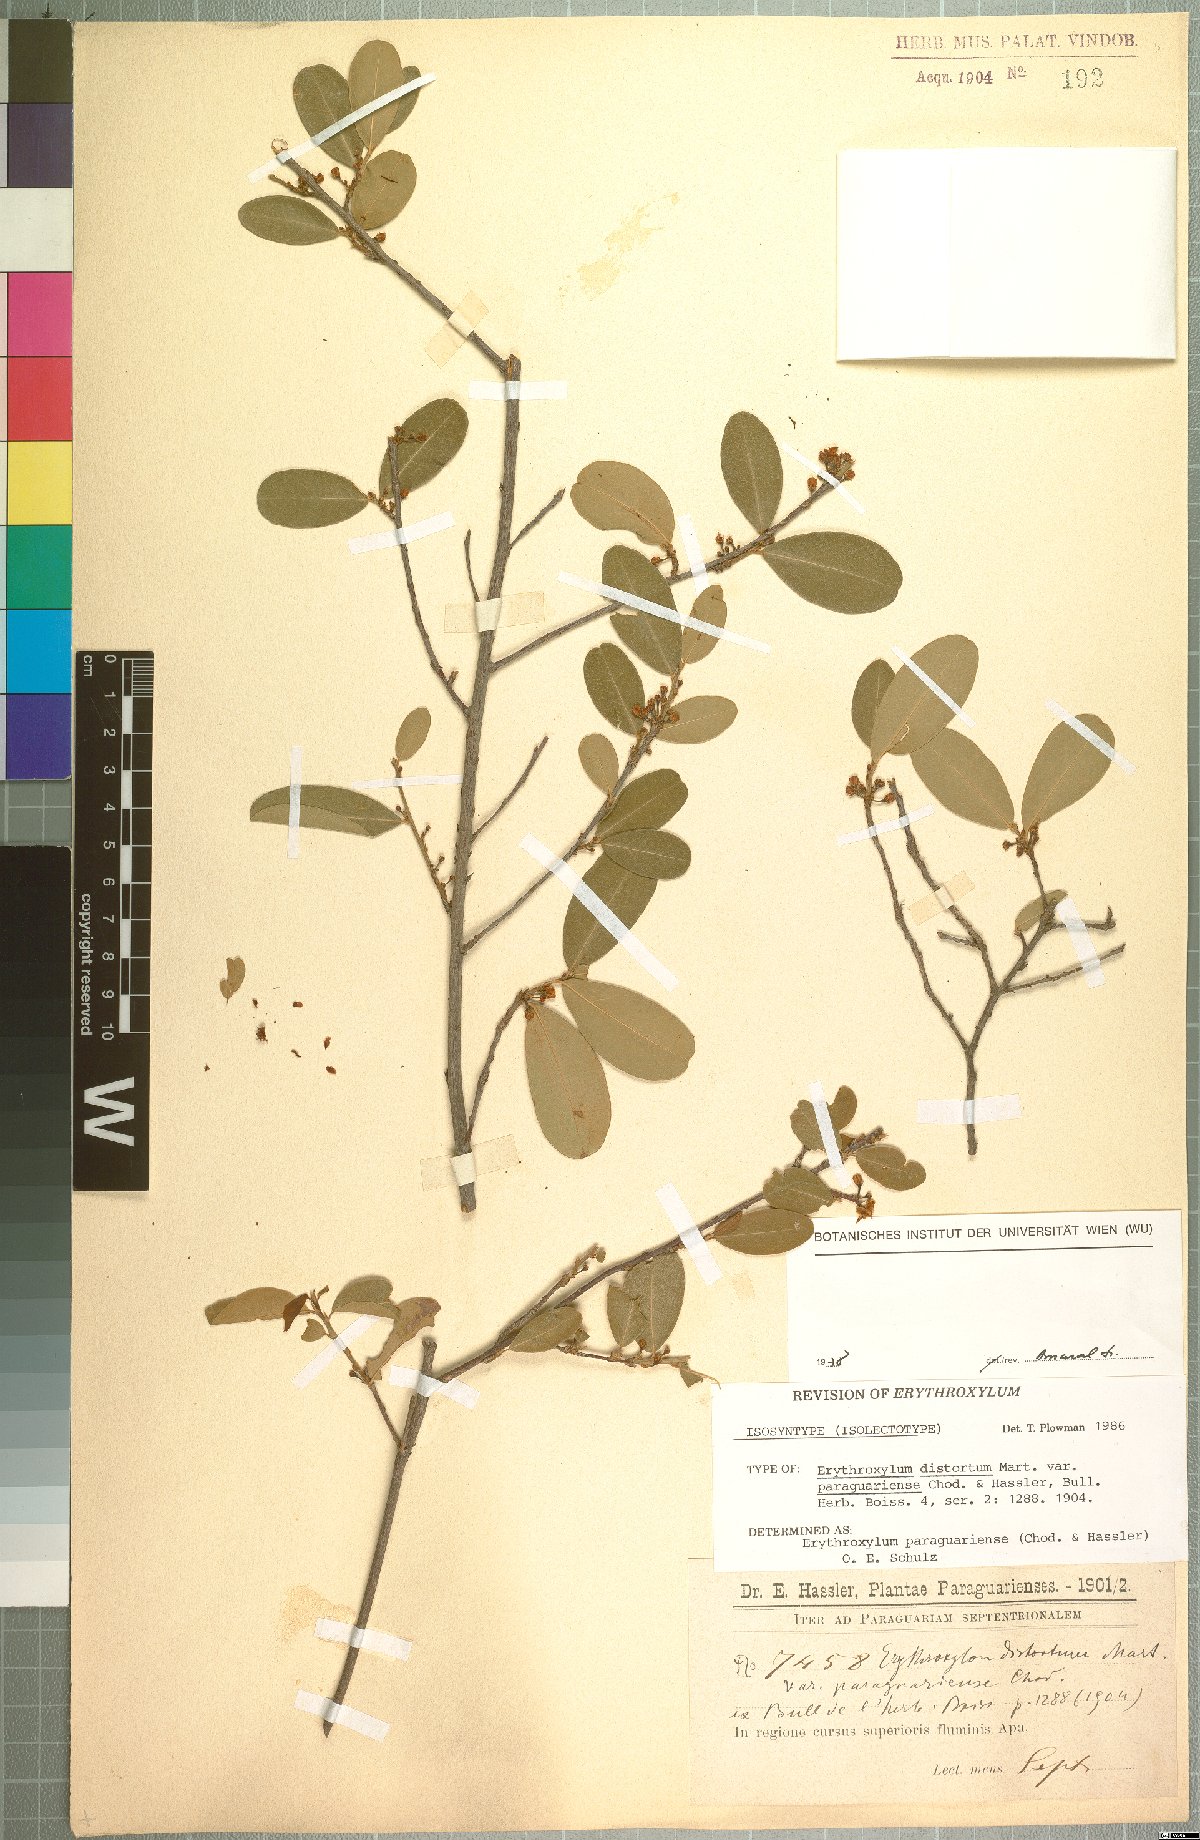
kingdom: Plantae
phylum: Tracheophyta
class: Magnoliopsida
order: Malpighiales
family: Erythroxylaceae
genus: Erythroxylum
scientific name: Erythroxylum paraguariense
